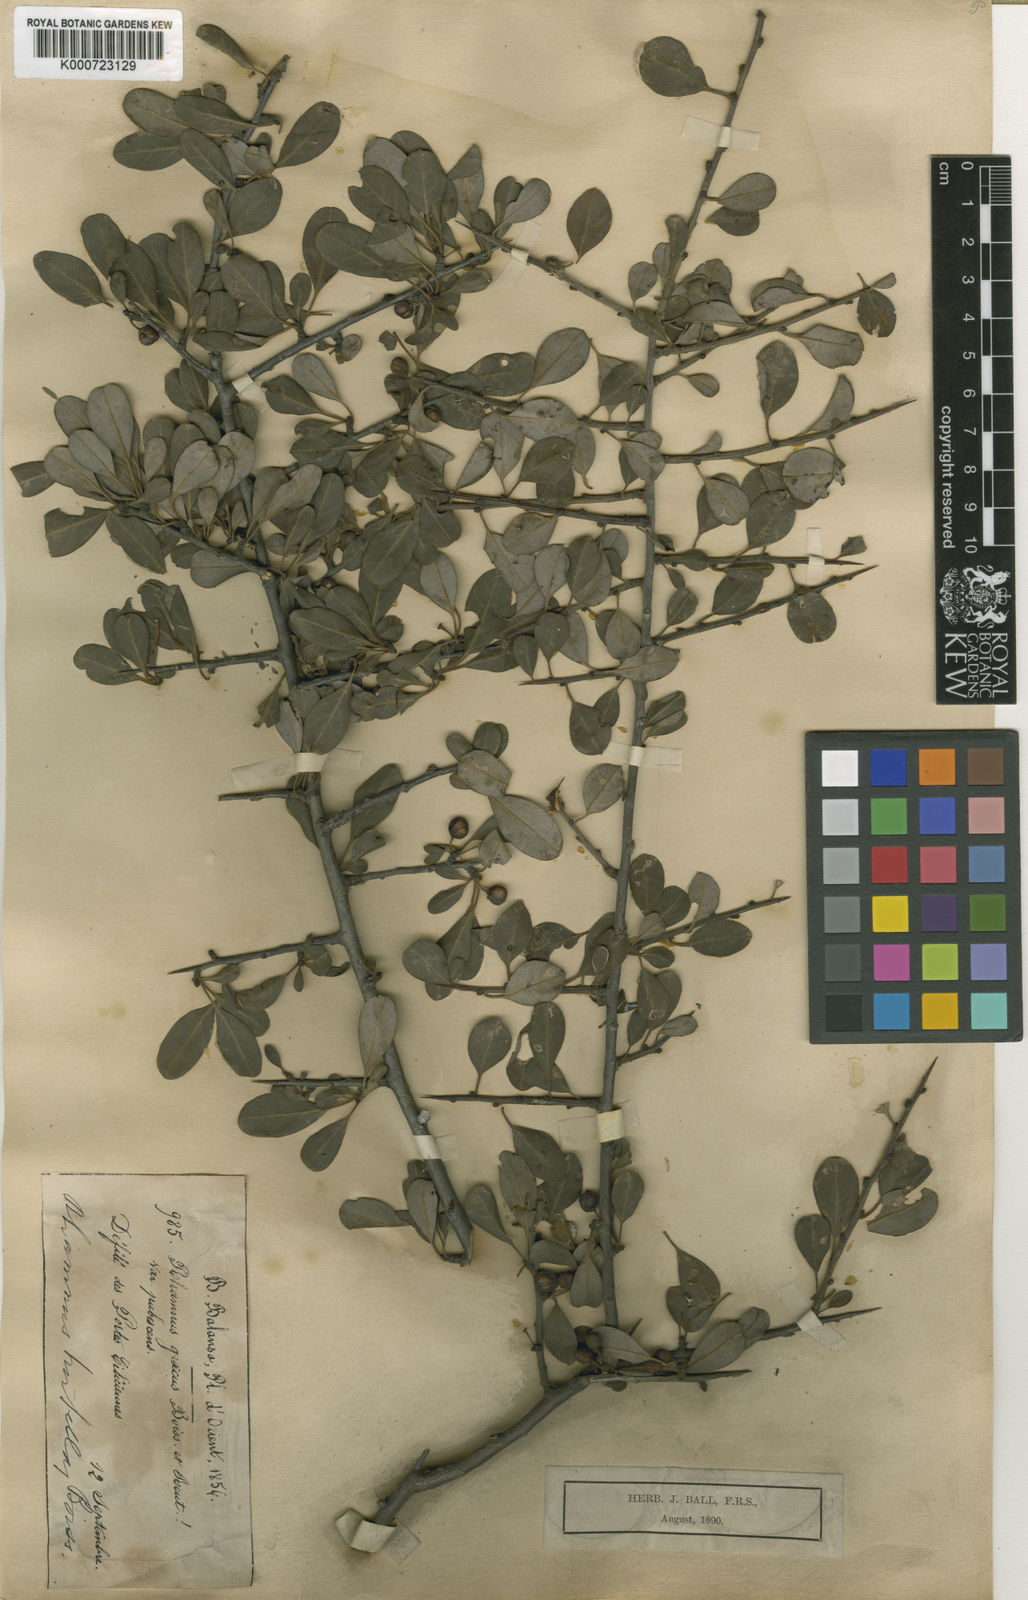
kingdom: Plantae
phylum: Tracheophyta
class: Magnoliopsida
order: Rosales
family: Rhamnaceae
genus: Rhamnus
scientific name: Rhamnus hirtella
